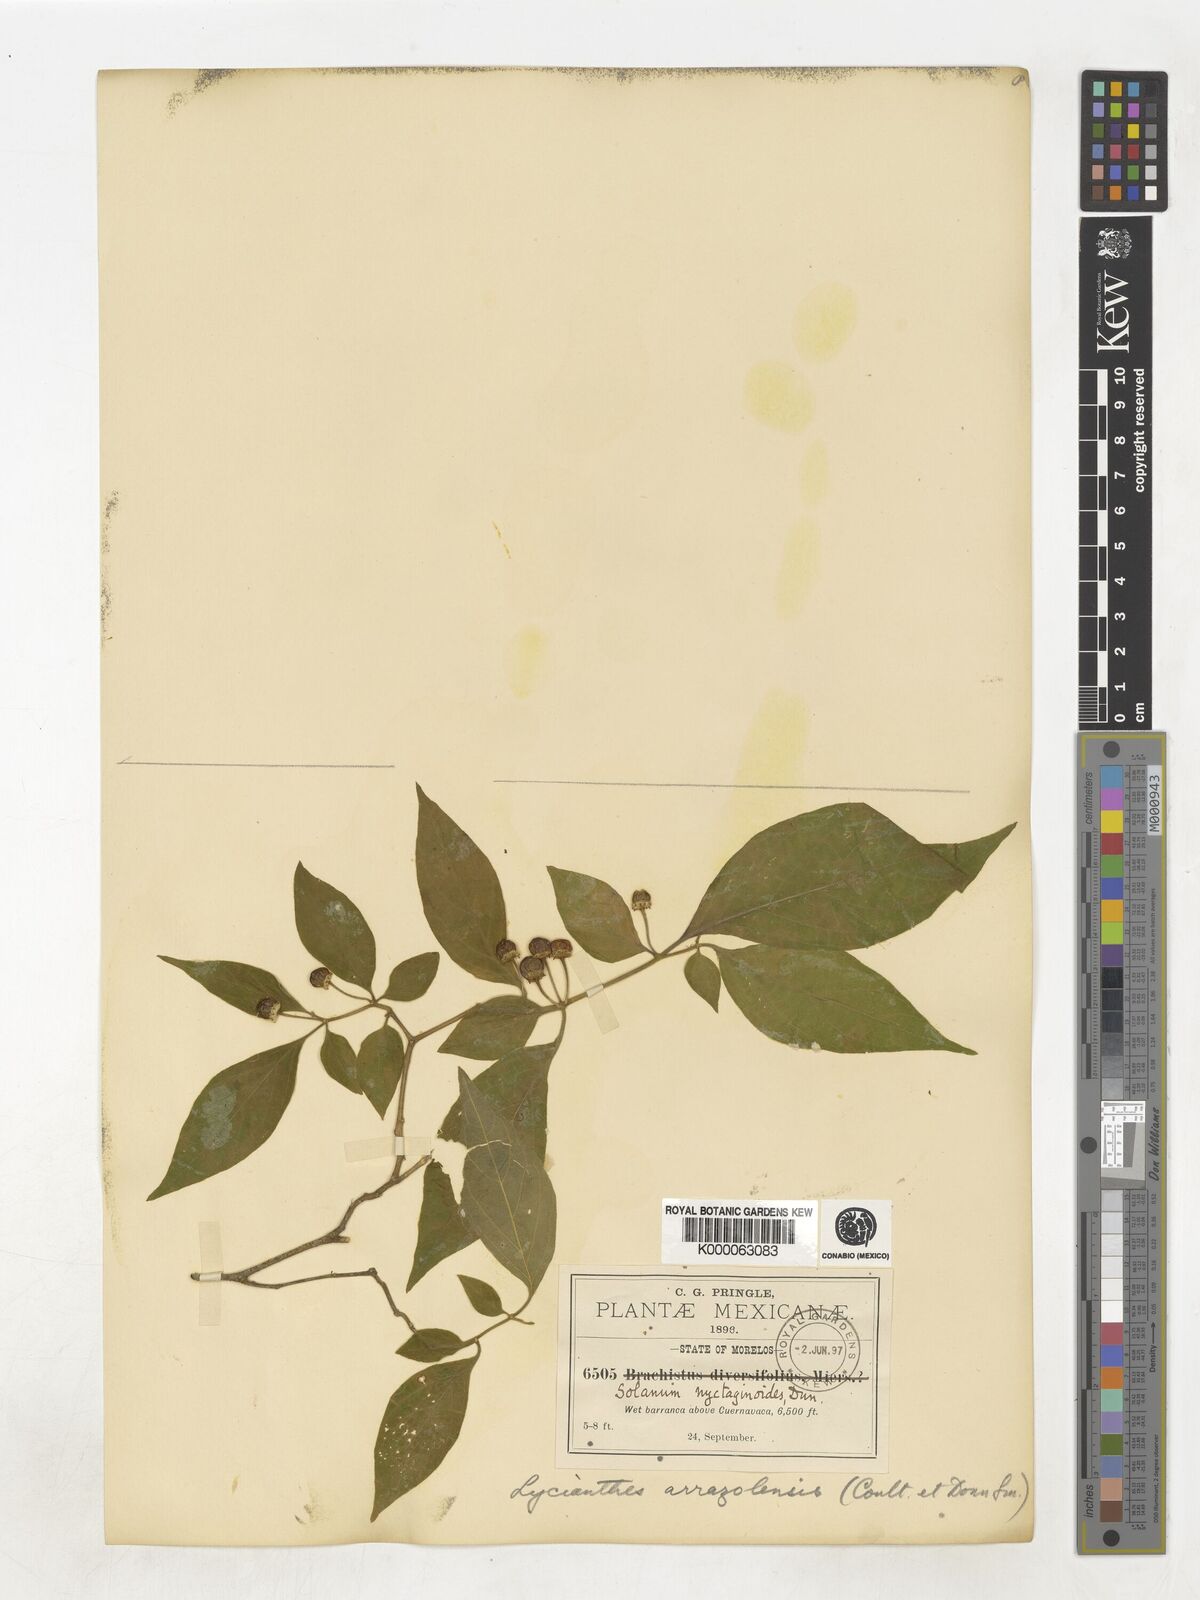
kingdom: Plantae
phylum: Tracheophyta
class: Magnoliopsida
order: Solanales
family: Solanaceae
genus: Lycianthes
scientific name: Lycianthes
